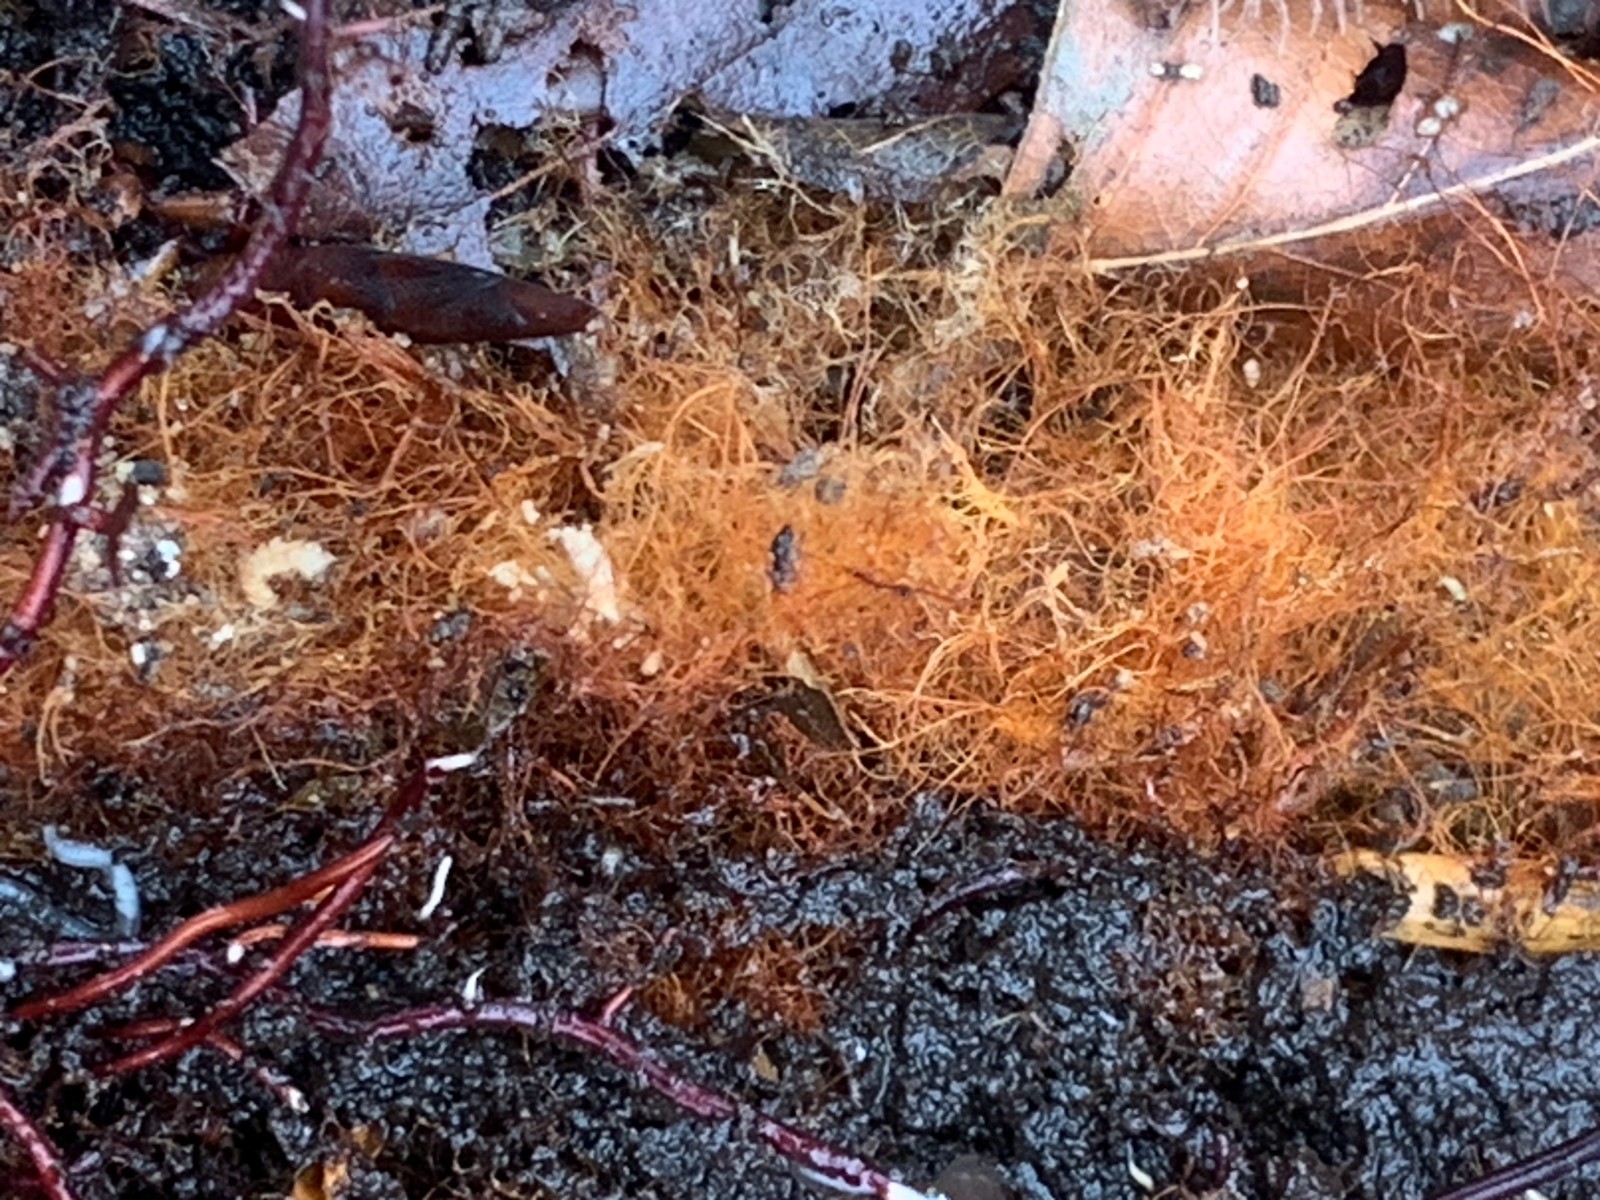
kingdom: Fungi
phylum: Basidiomycota
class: Agaricomycetes
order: Agaricales
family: Psathyrellaceae
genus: Ozonium
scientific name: Ozonium
